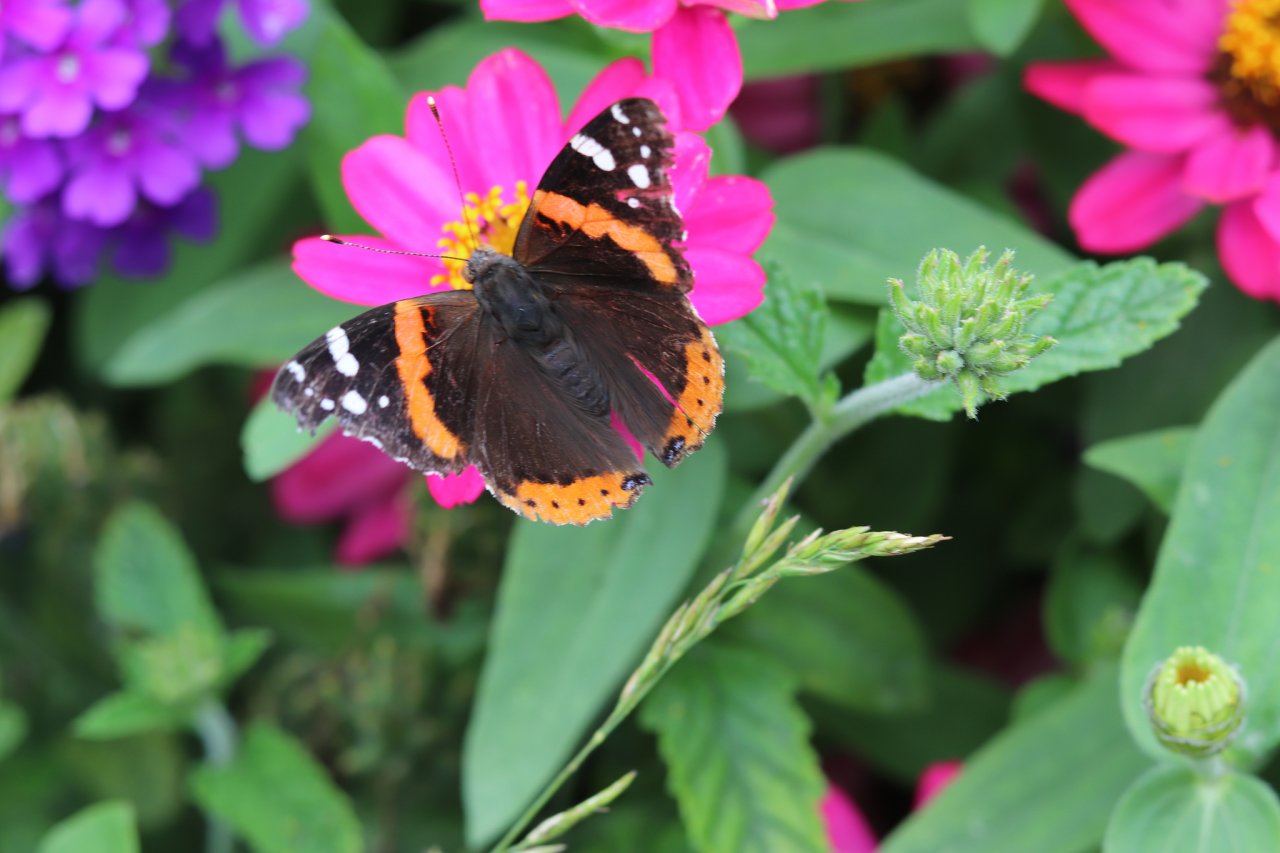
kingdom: Animalia
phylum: Arthropoda
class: Insecta
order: Lepidoptera
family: Nymphalidae
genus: Vanessa
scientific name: Vanessa atalanta
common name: Red Admiral
